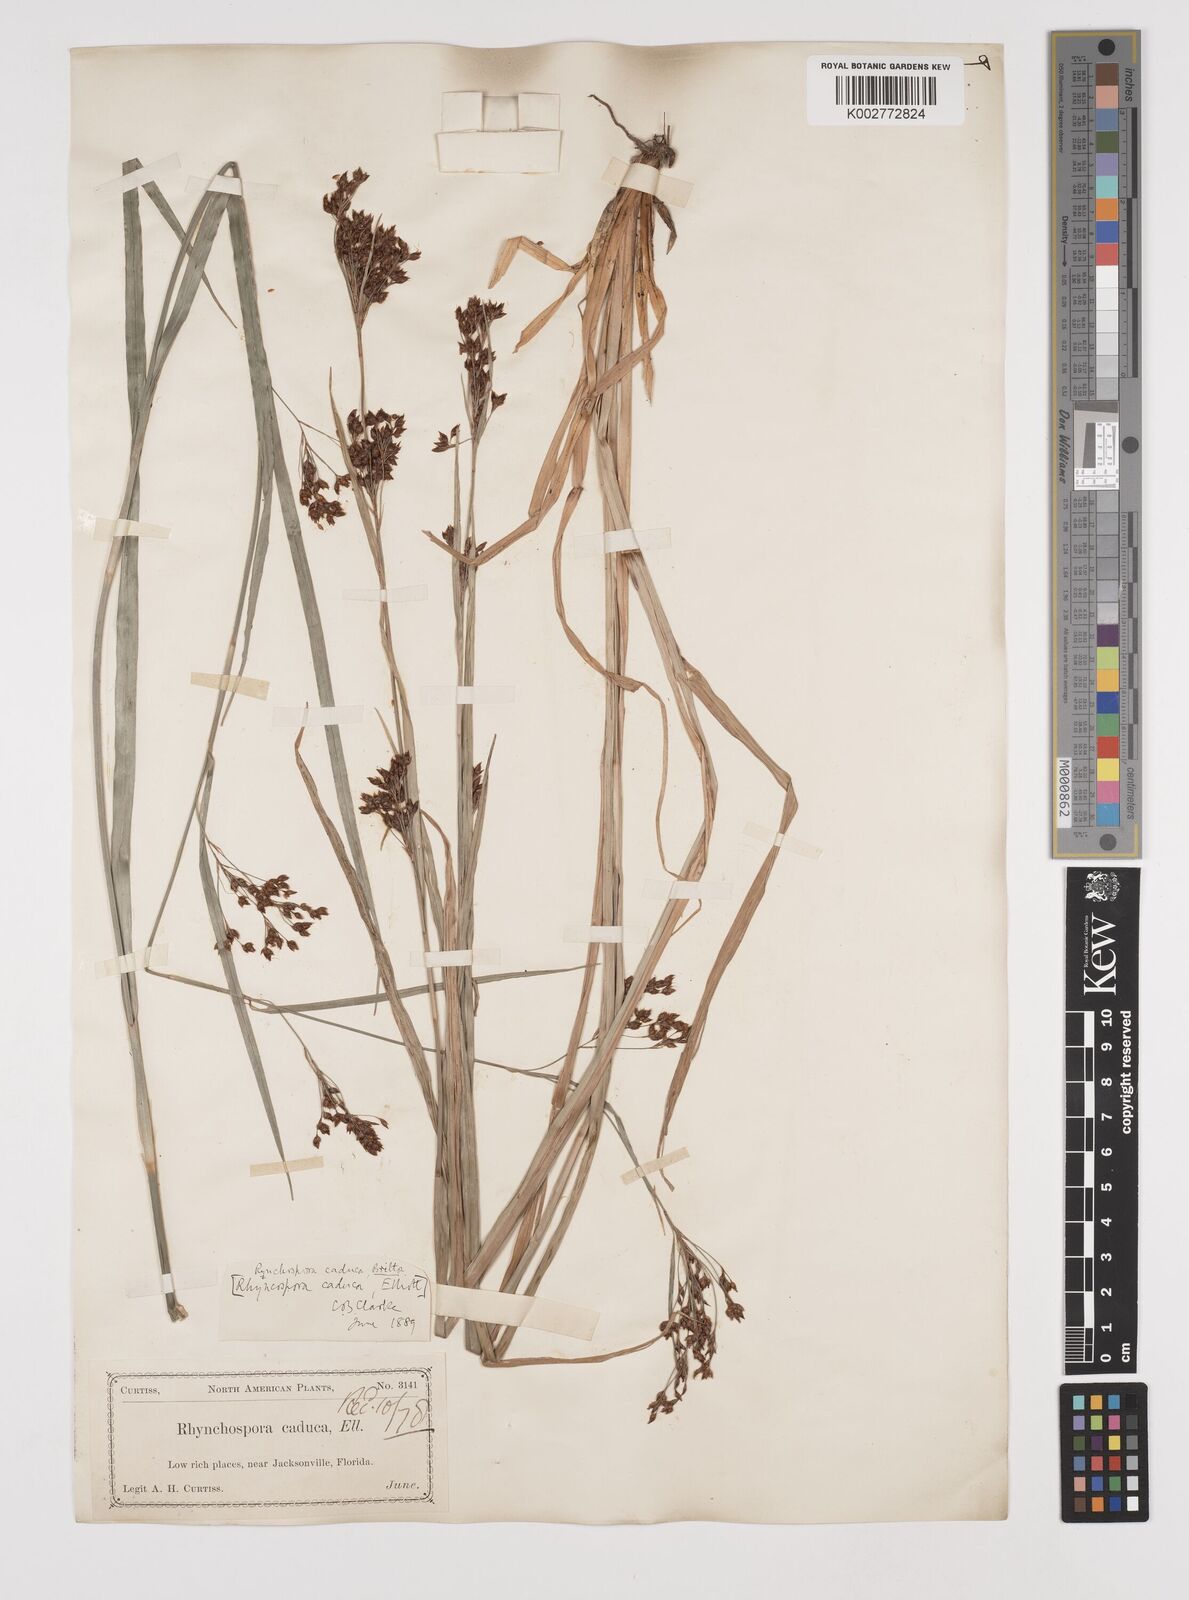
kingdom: Plantae
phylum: Tracheophyta
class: Liliopsida
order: Poales
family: Cyperaceae
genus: Rhynchospora
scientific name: Rhynchospora caduca
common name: Anglestem beaksedge
